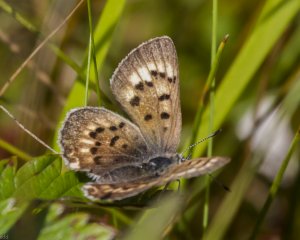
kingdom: Animalia
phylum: Arthropoda
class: Insecta
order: Lepidoptera
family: Lycaenidae
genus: Epidemia
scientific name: Epidemia dorcas
